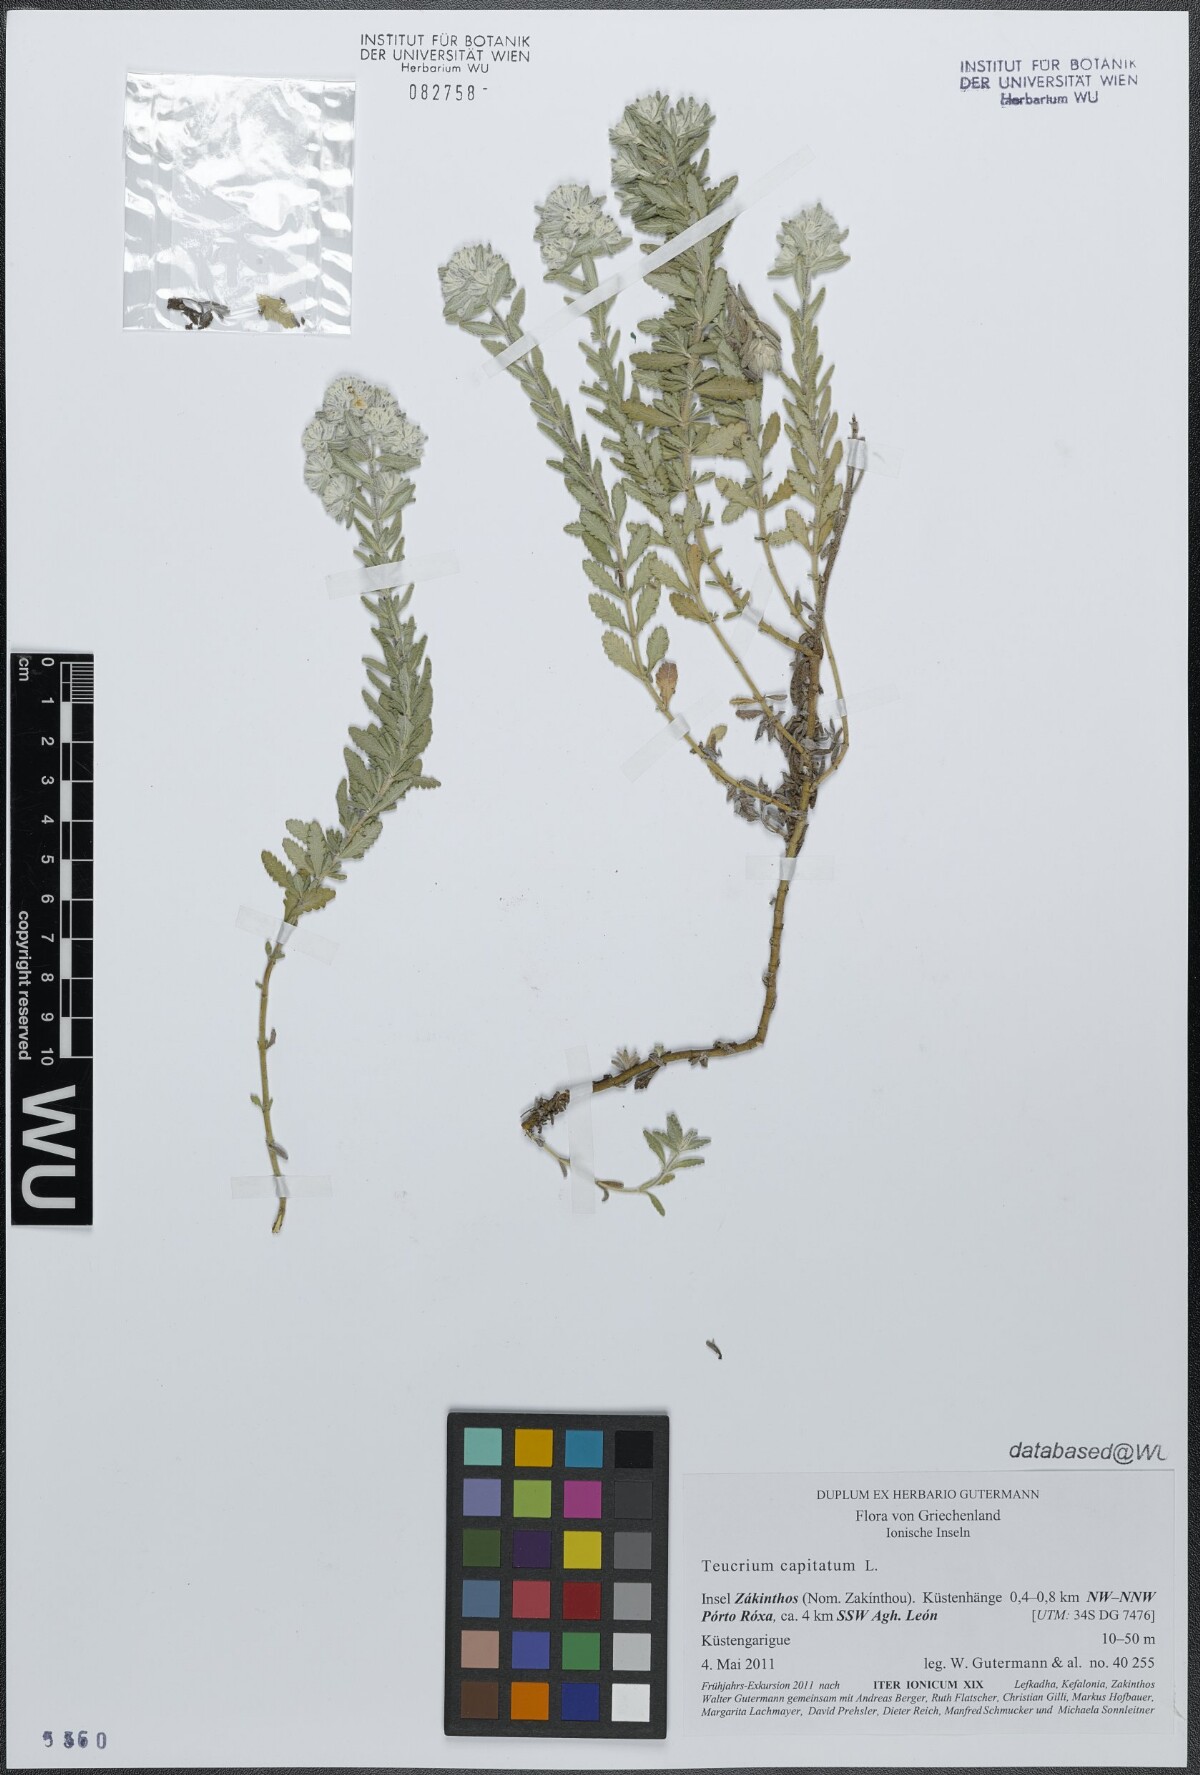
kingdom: Plantae
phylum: Tracheophyta
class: Magnoliopsida
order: Lamiales
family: Lamiaceae
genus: Teucrium
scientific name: Teucrium capitatum
